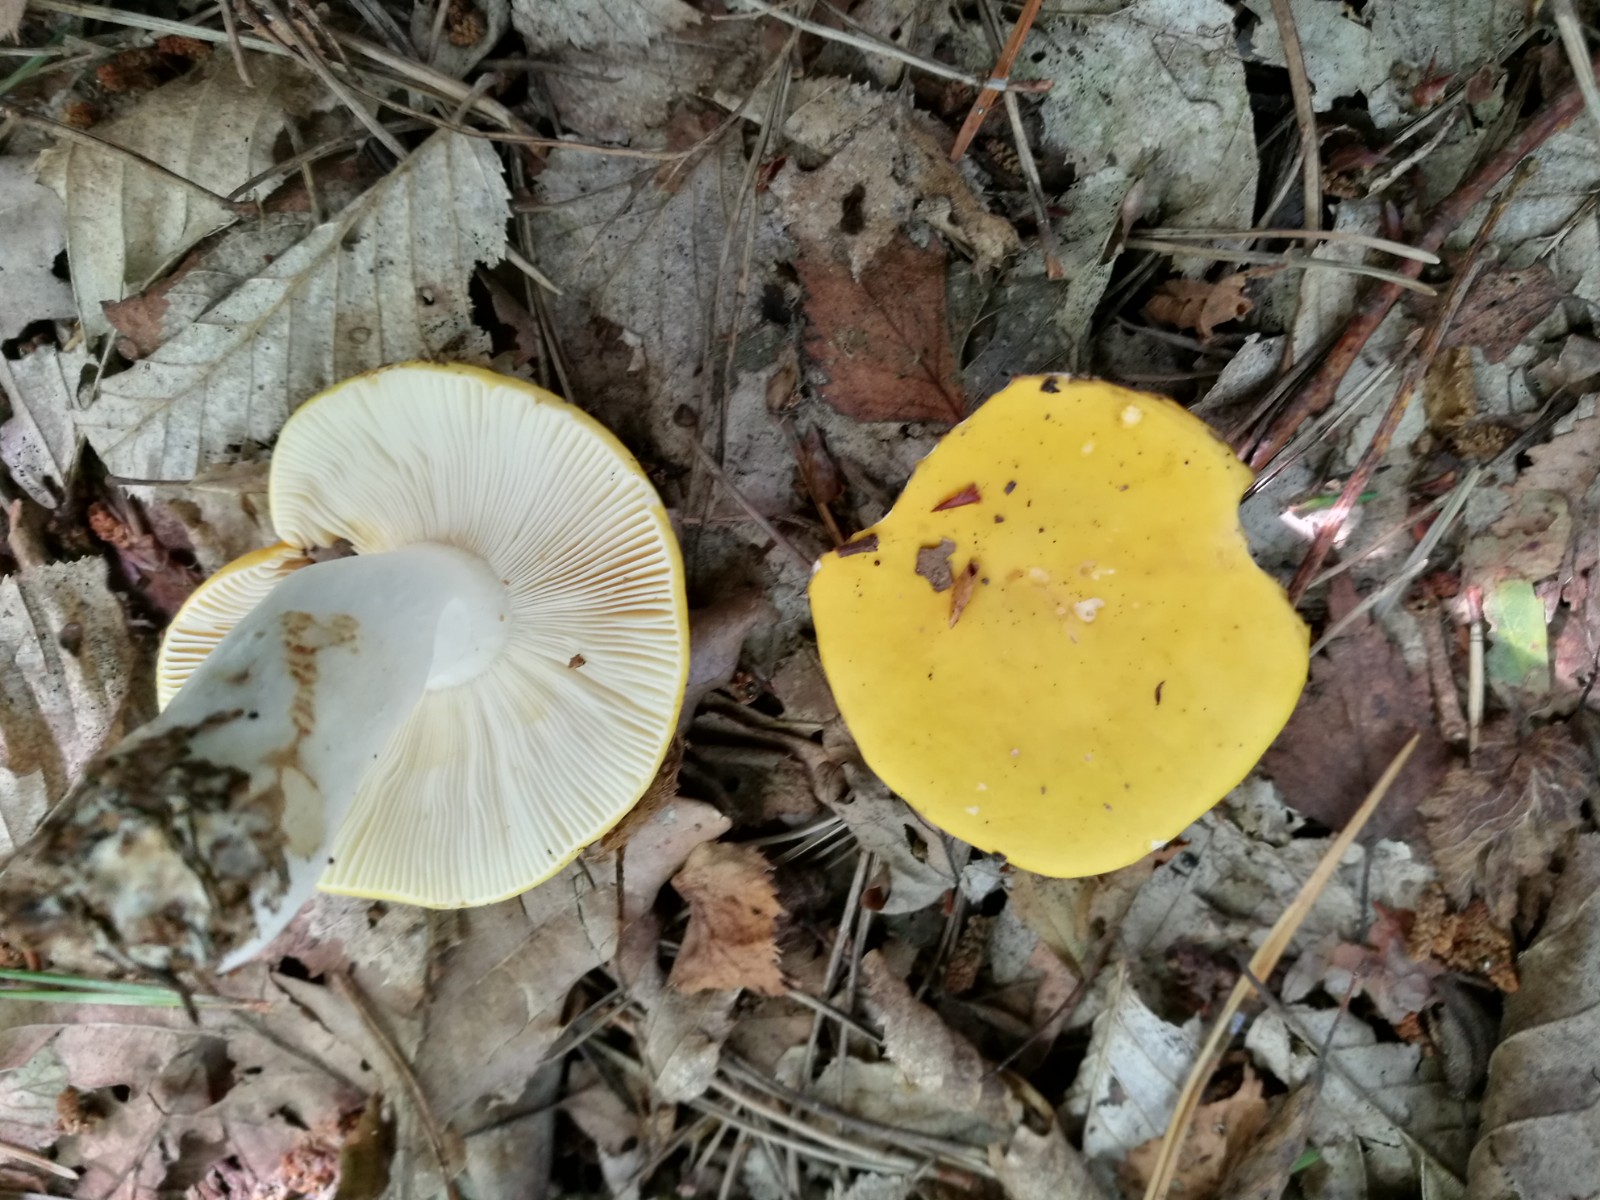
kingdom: Fungi
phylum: Basidiomycota
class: Agaricomycetes
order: Russulales
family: Russulaceae
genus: Russula
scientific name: Russula claroflava
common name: birke-skørhat
